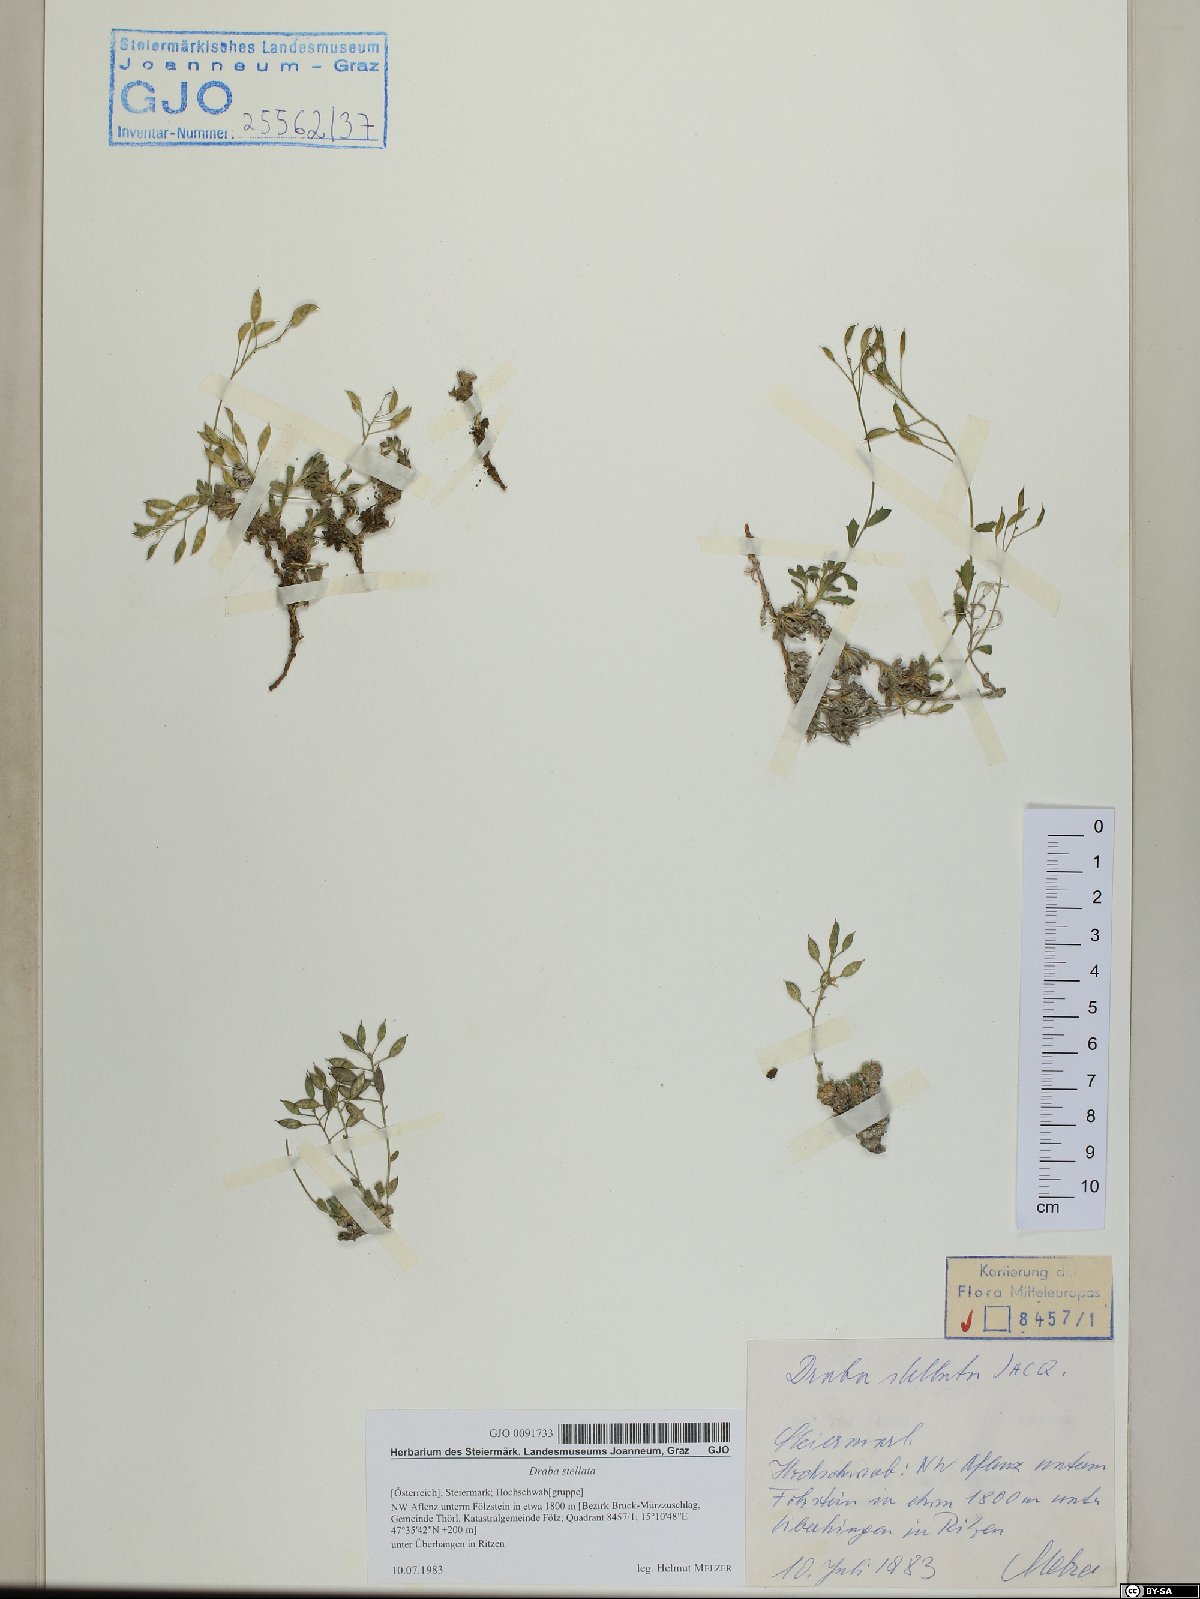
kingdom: Plantae
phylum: Tracheophyta
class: Magnoliopsida
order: Brassicales
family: Brassicaceae
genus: Draba
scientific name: Draba stellata
